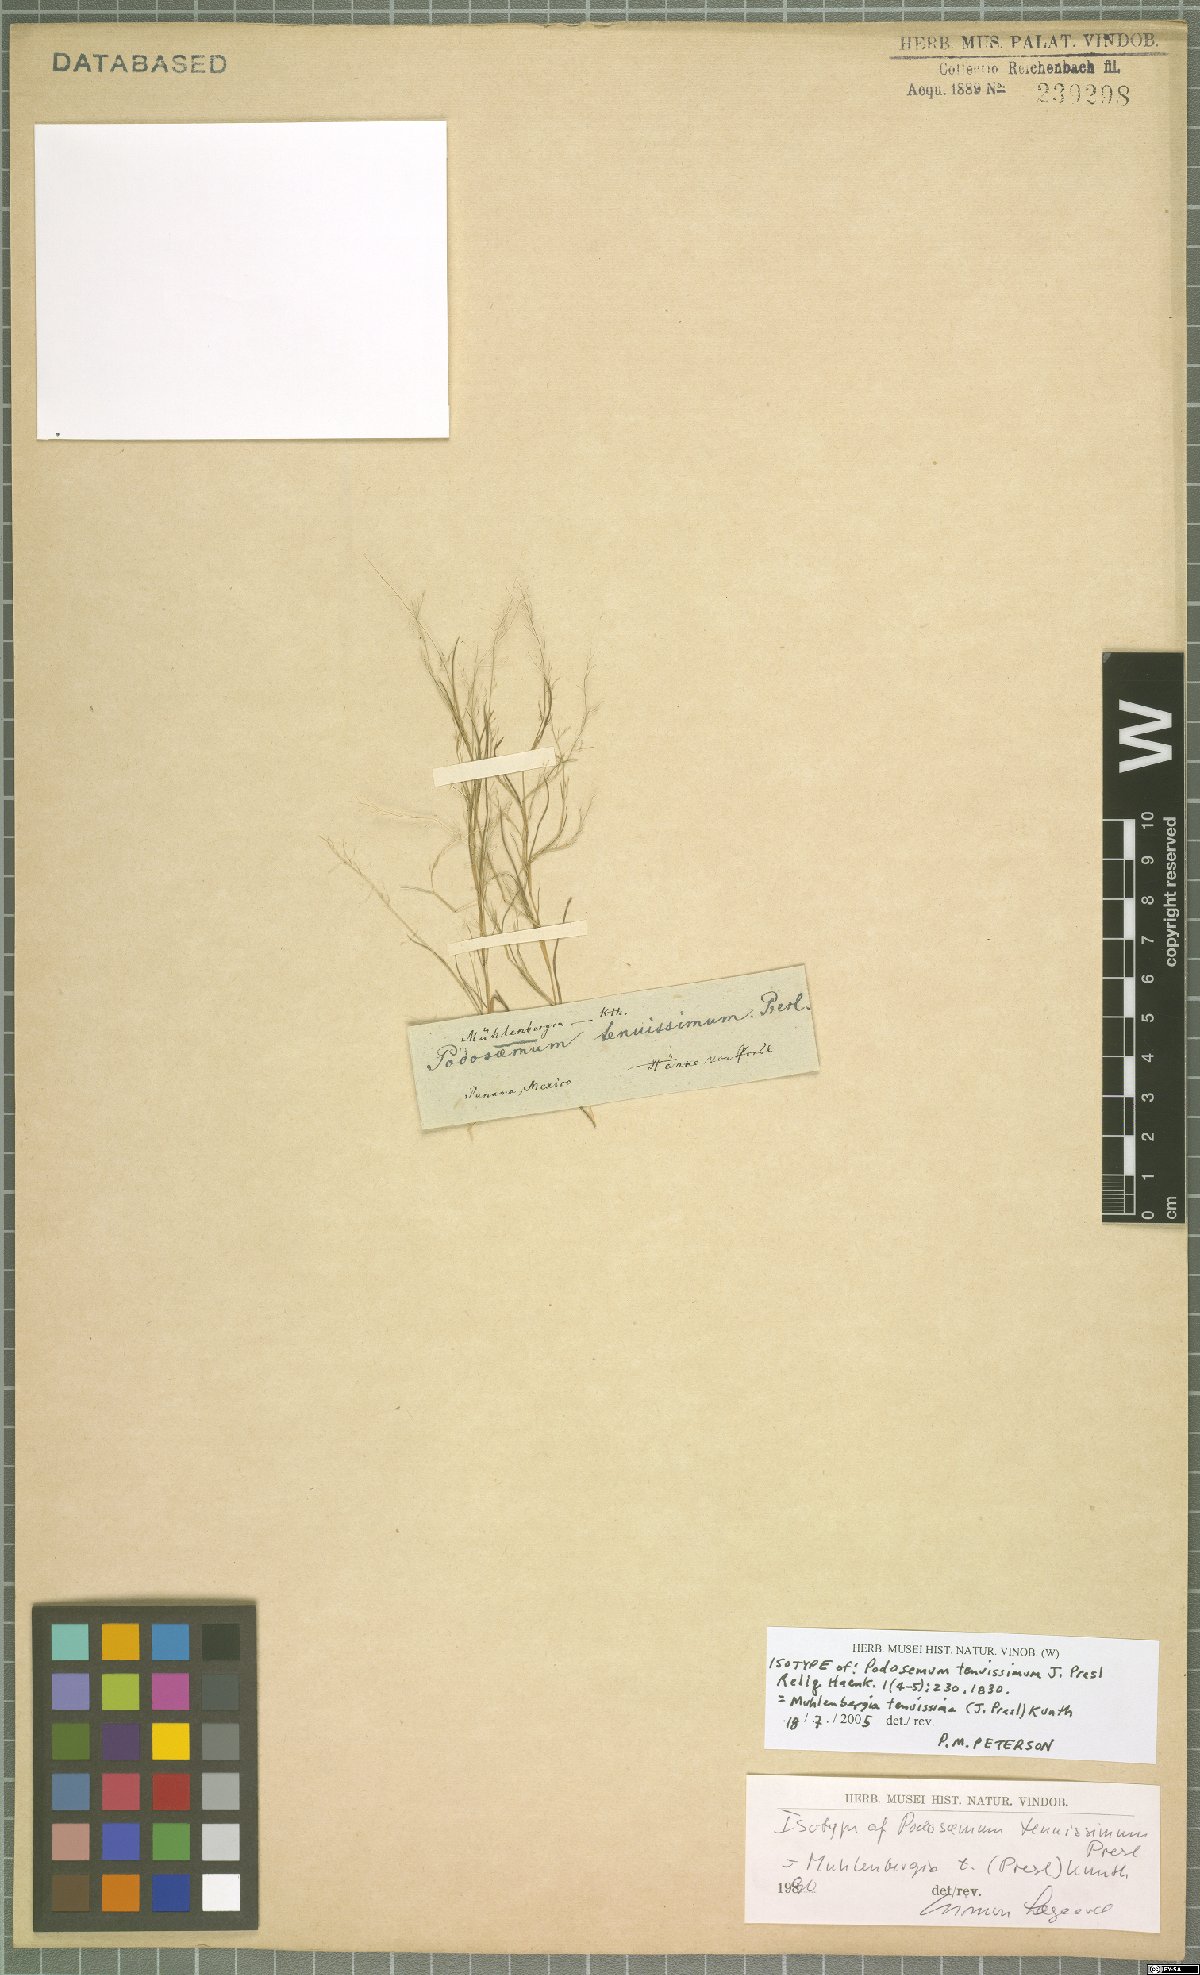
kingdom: Plantae
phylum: Tracheophyta
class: Liliopsida
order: Poales
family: Poaceae
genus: Muhlenbergia
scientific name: Muhlenbergia tenuissima
